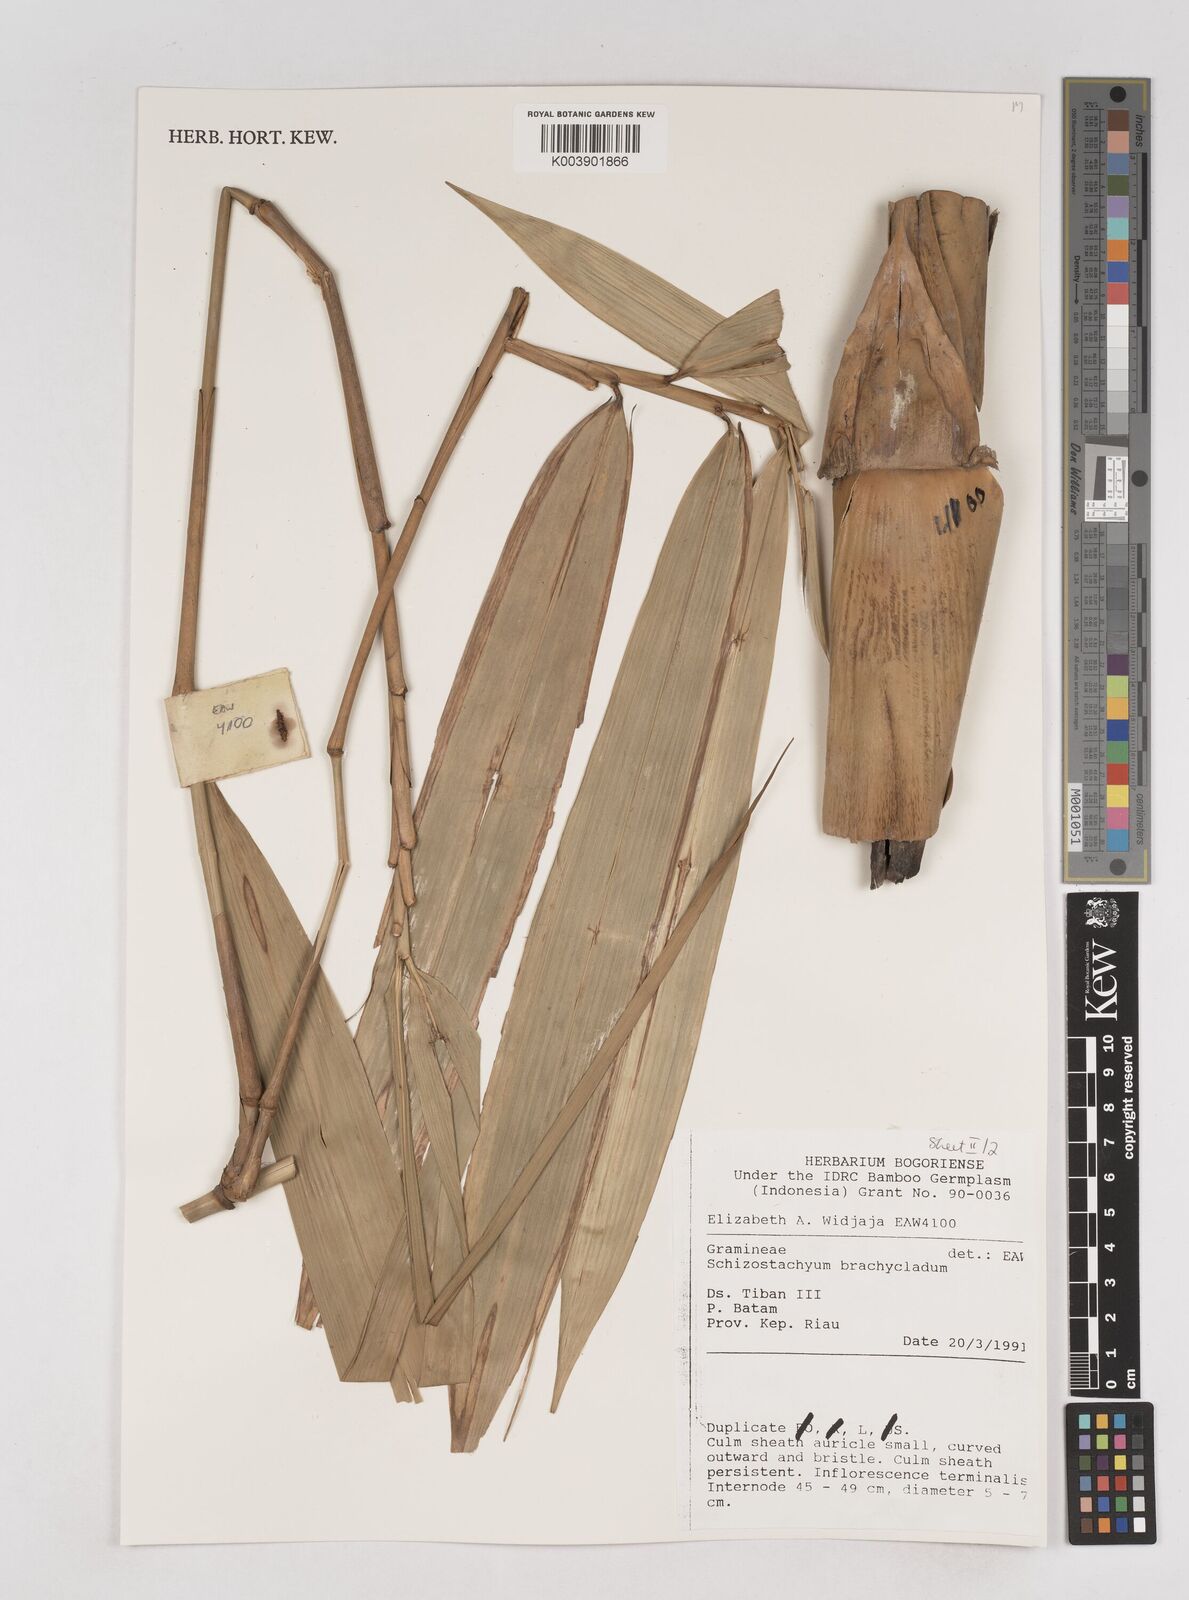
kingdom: Plantae
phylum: Tracheophyta
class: Liliopsida
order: Poales
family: Poaceae
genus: Schizostachyum
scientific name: Schizostachyum brachycladum
